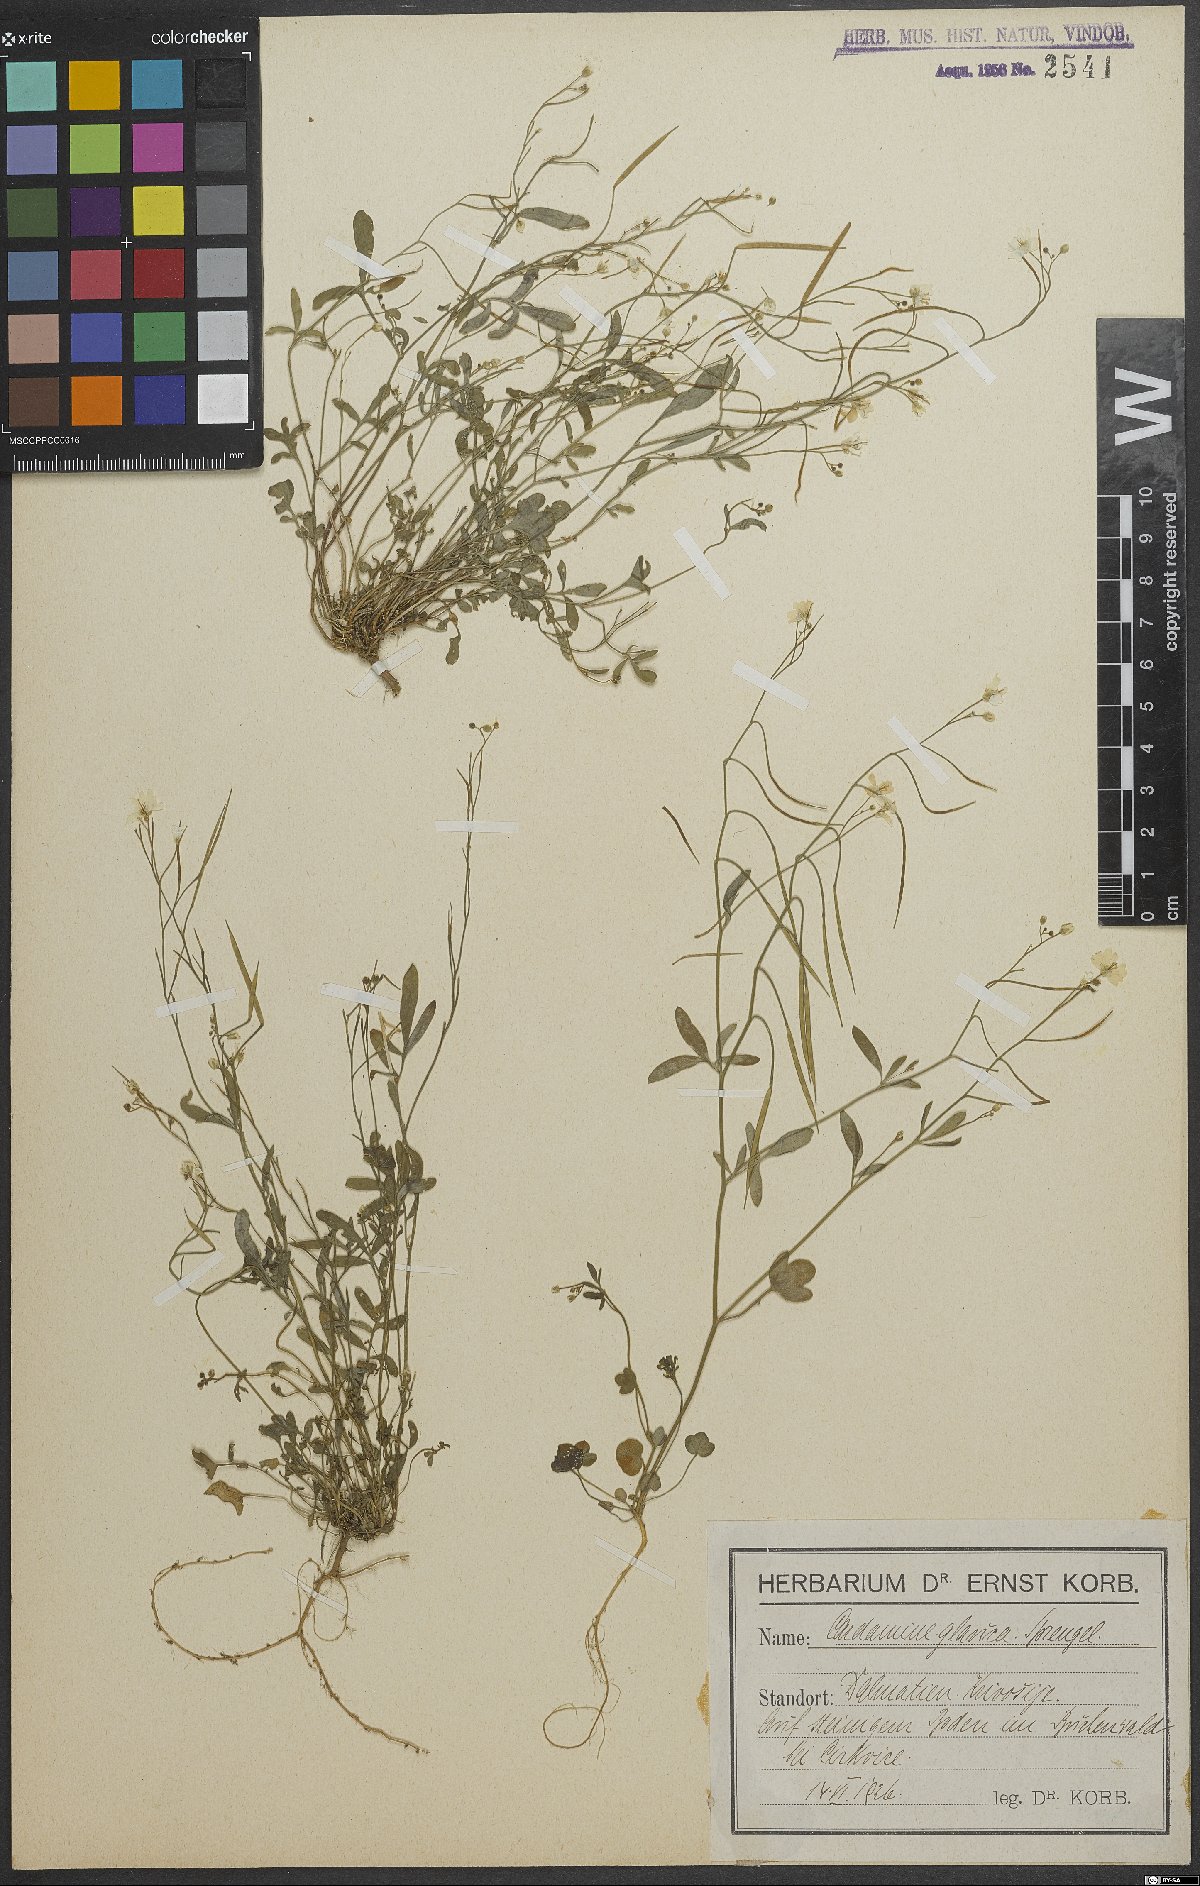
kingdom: Plantae
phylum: Tracheophyta
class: Magnoliopsida
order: Brassicales
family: Brassicaceae
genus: Cardamine
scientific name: Cardamine glauca
